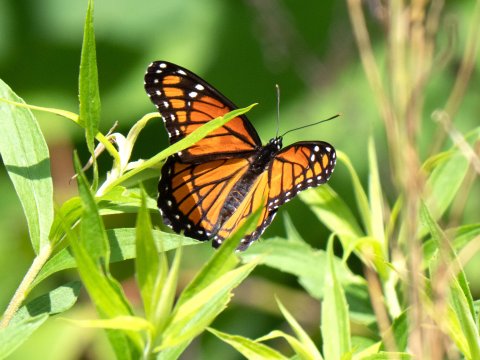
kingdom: Animalia
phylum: Arthropoda
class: Insecta
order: Lepidoptera
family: Nymphalidae
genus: Limenitis
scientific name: Limenitis archippus
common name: Viceroy
